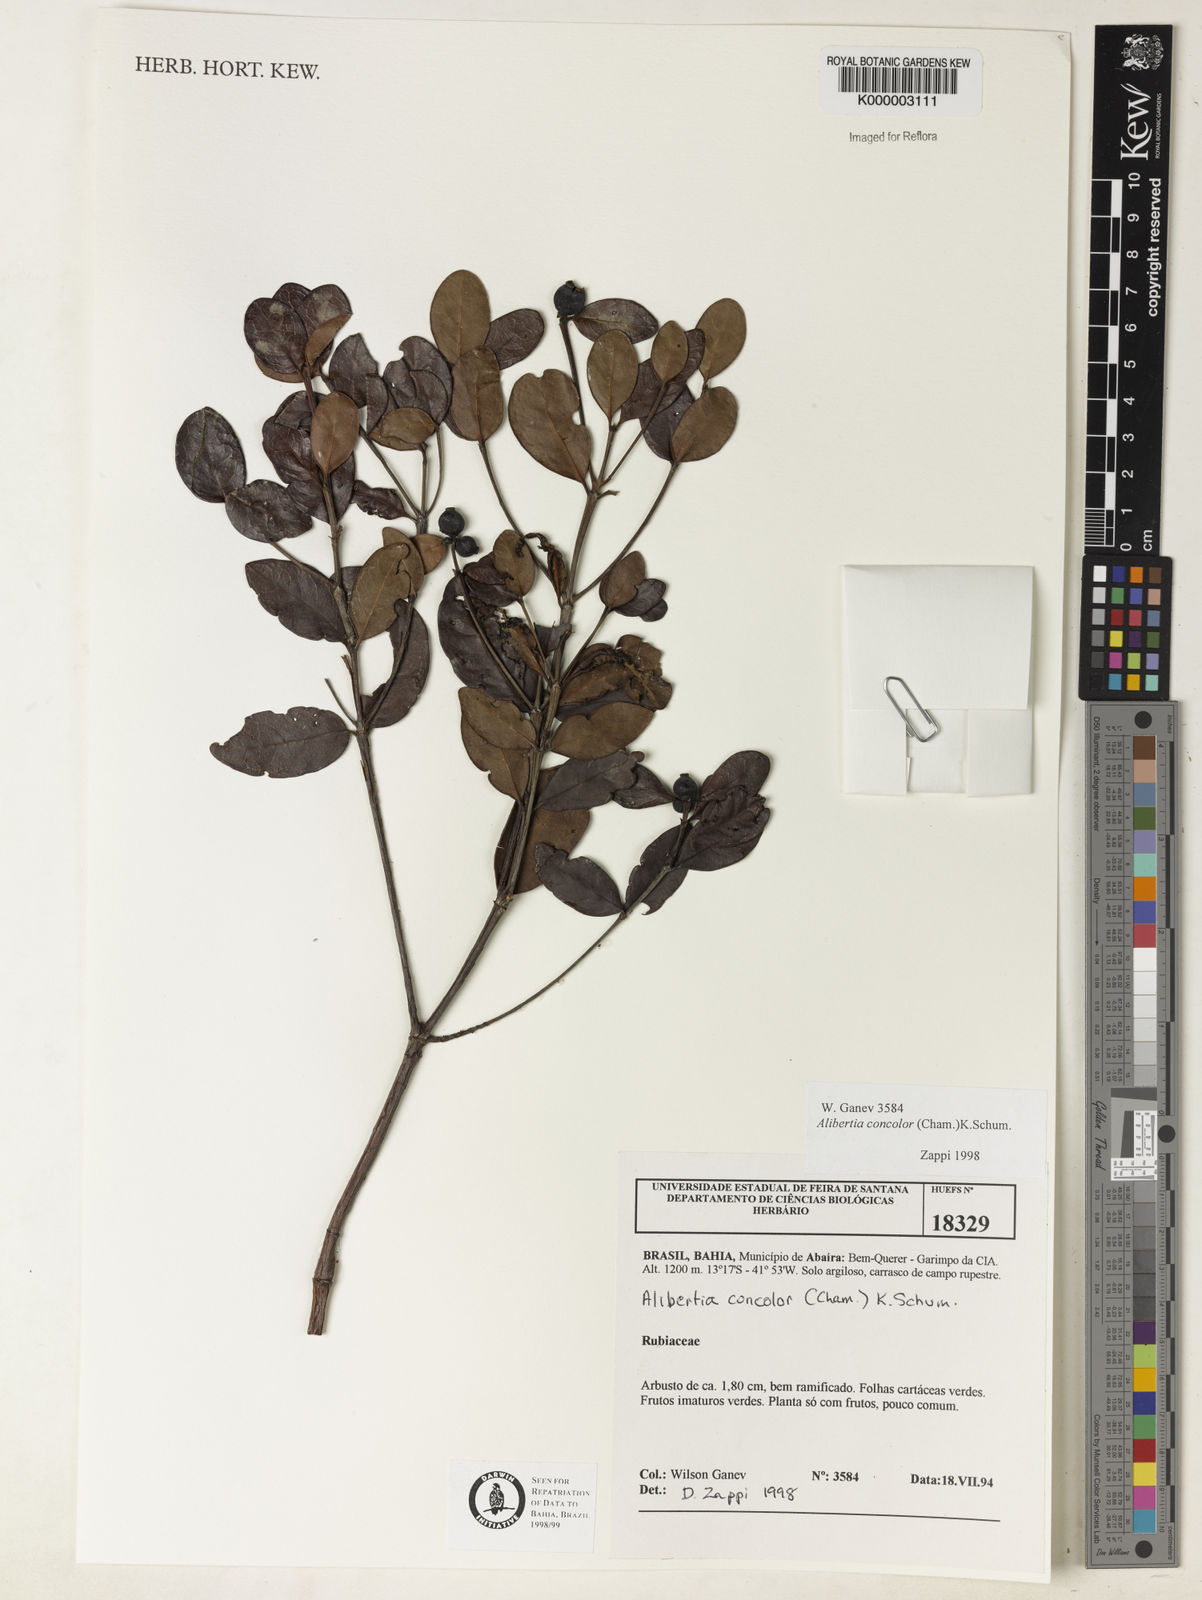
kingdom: Plantae
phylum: Tracheophyta
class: Magnoliopsida
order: Gentianales
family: Rubiaceae
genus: Cordiera
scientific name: Cordiera concolor
